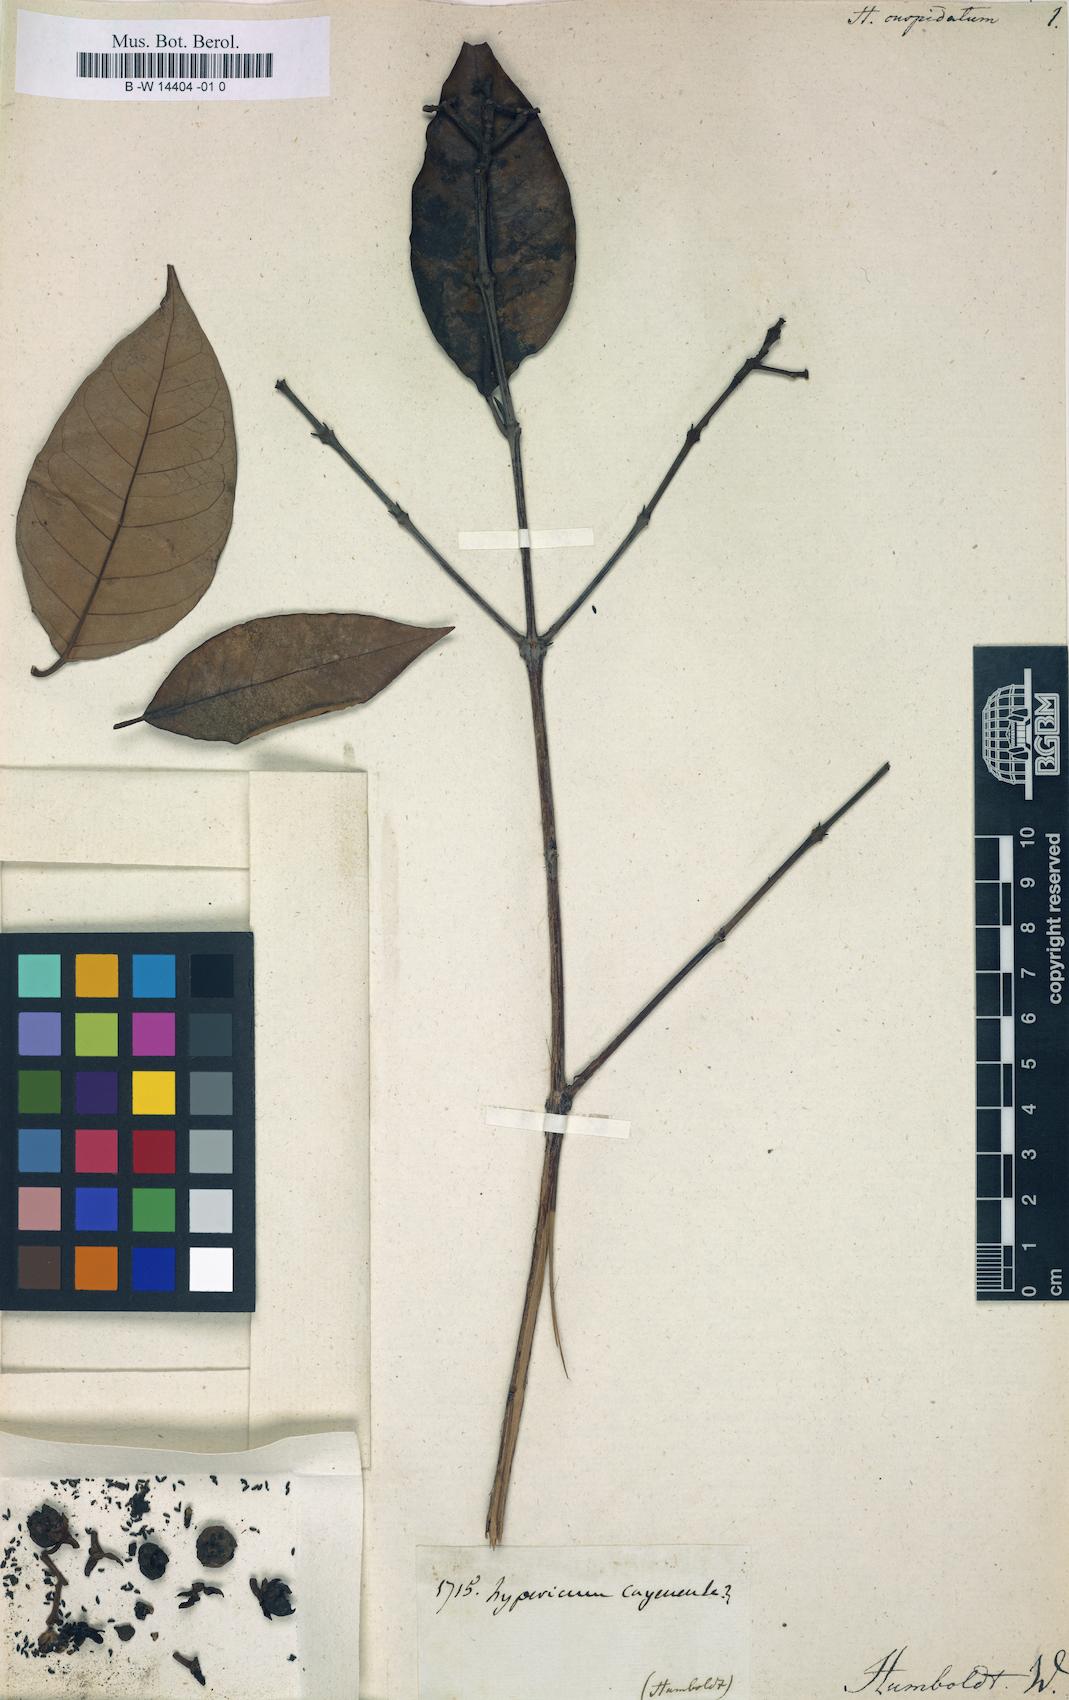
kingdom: Plantae
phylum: Tracheophyta
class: Magnoliopsida
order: Malpighiales
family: Hypericaceae
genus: Vismia
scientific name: Vismia guianensis
